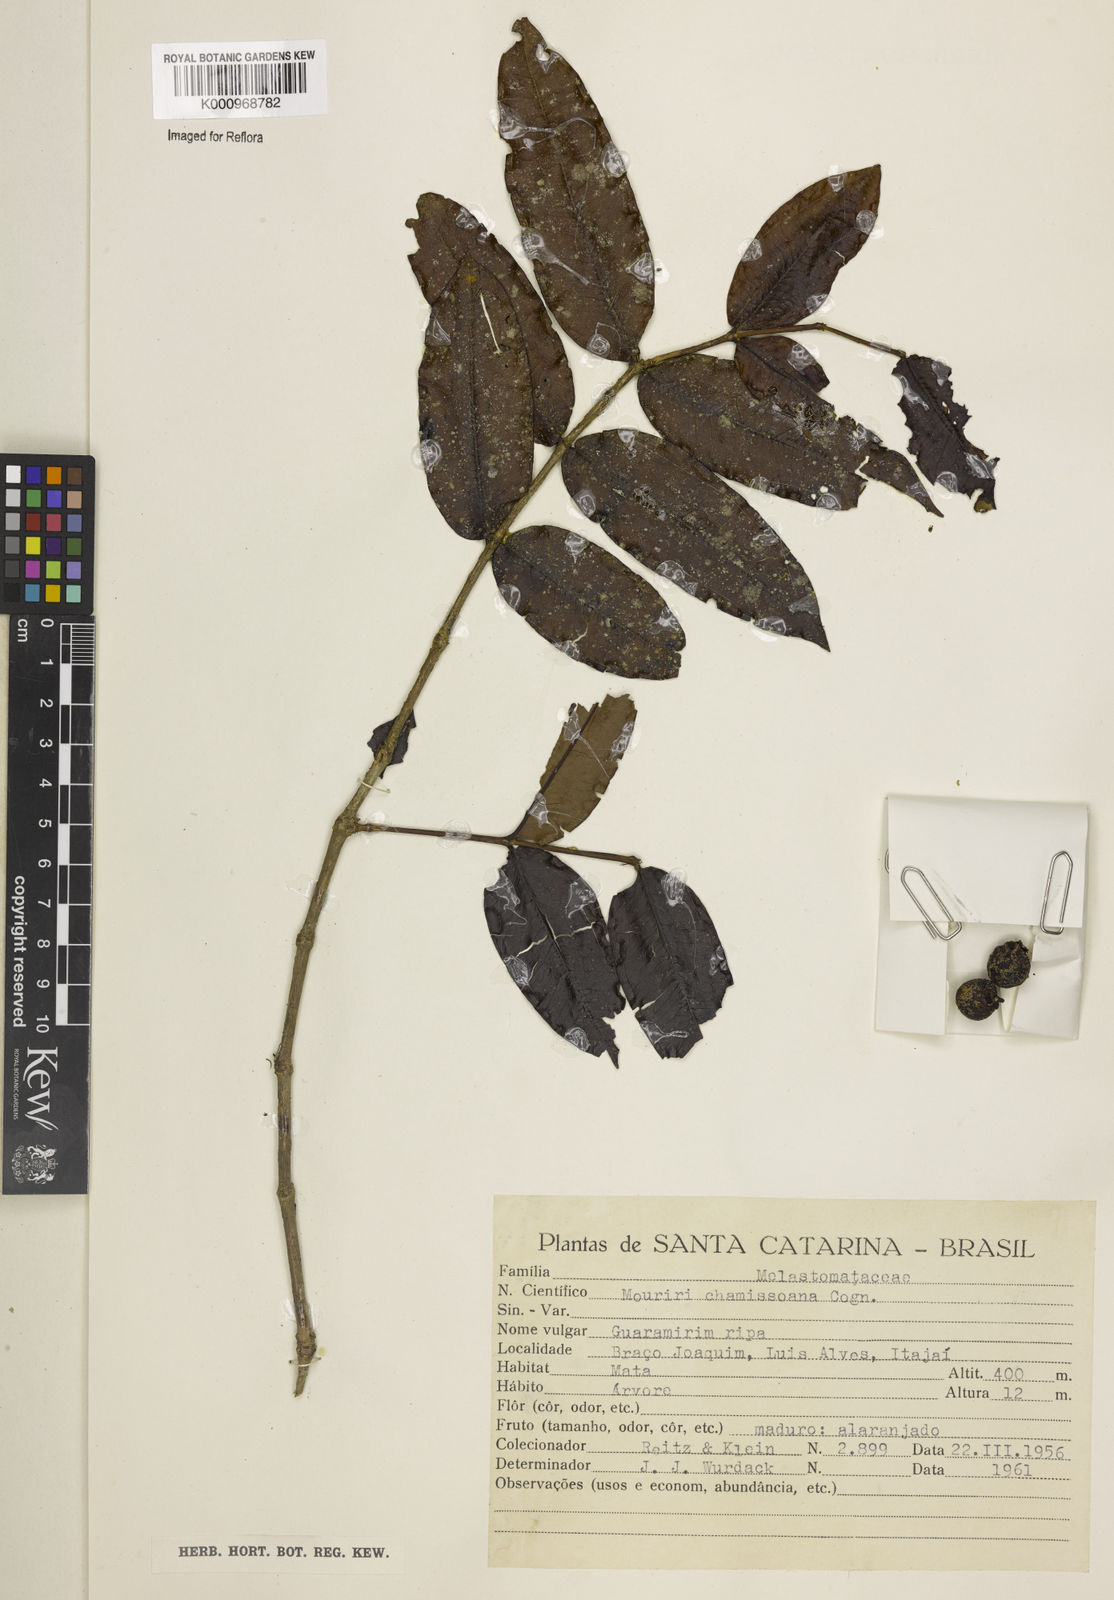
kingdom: Plantae
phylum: Tracheophyta
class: Magnoliopsida
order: Myrtales
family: Melastomataceae
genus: Mouriri
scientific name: Mouriri chamissoana
